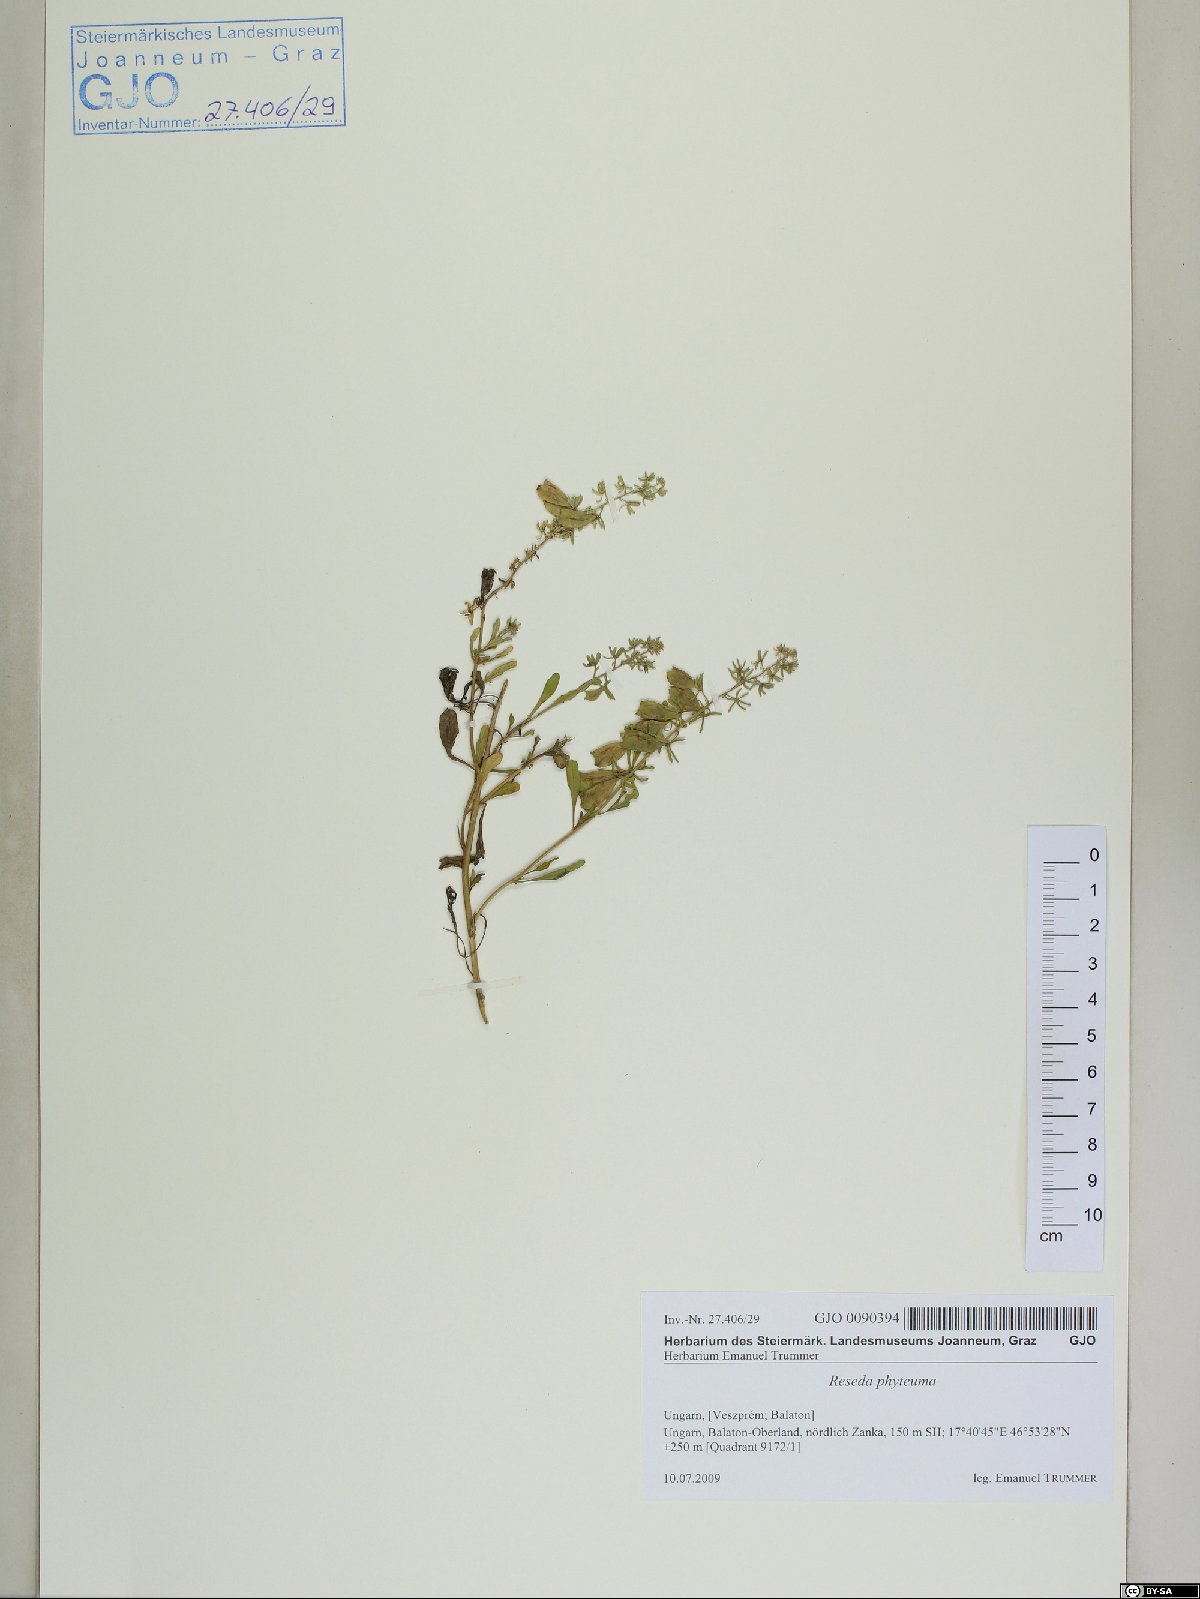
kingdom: Plantae
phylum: Tracheophyta
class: Magnoliopsida
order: Brassicales
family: Resedaceae
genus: Reseda
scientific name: Reseda phyteuma
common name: Corn mignonette
